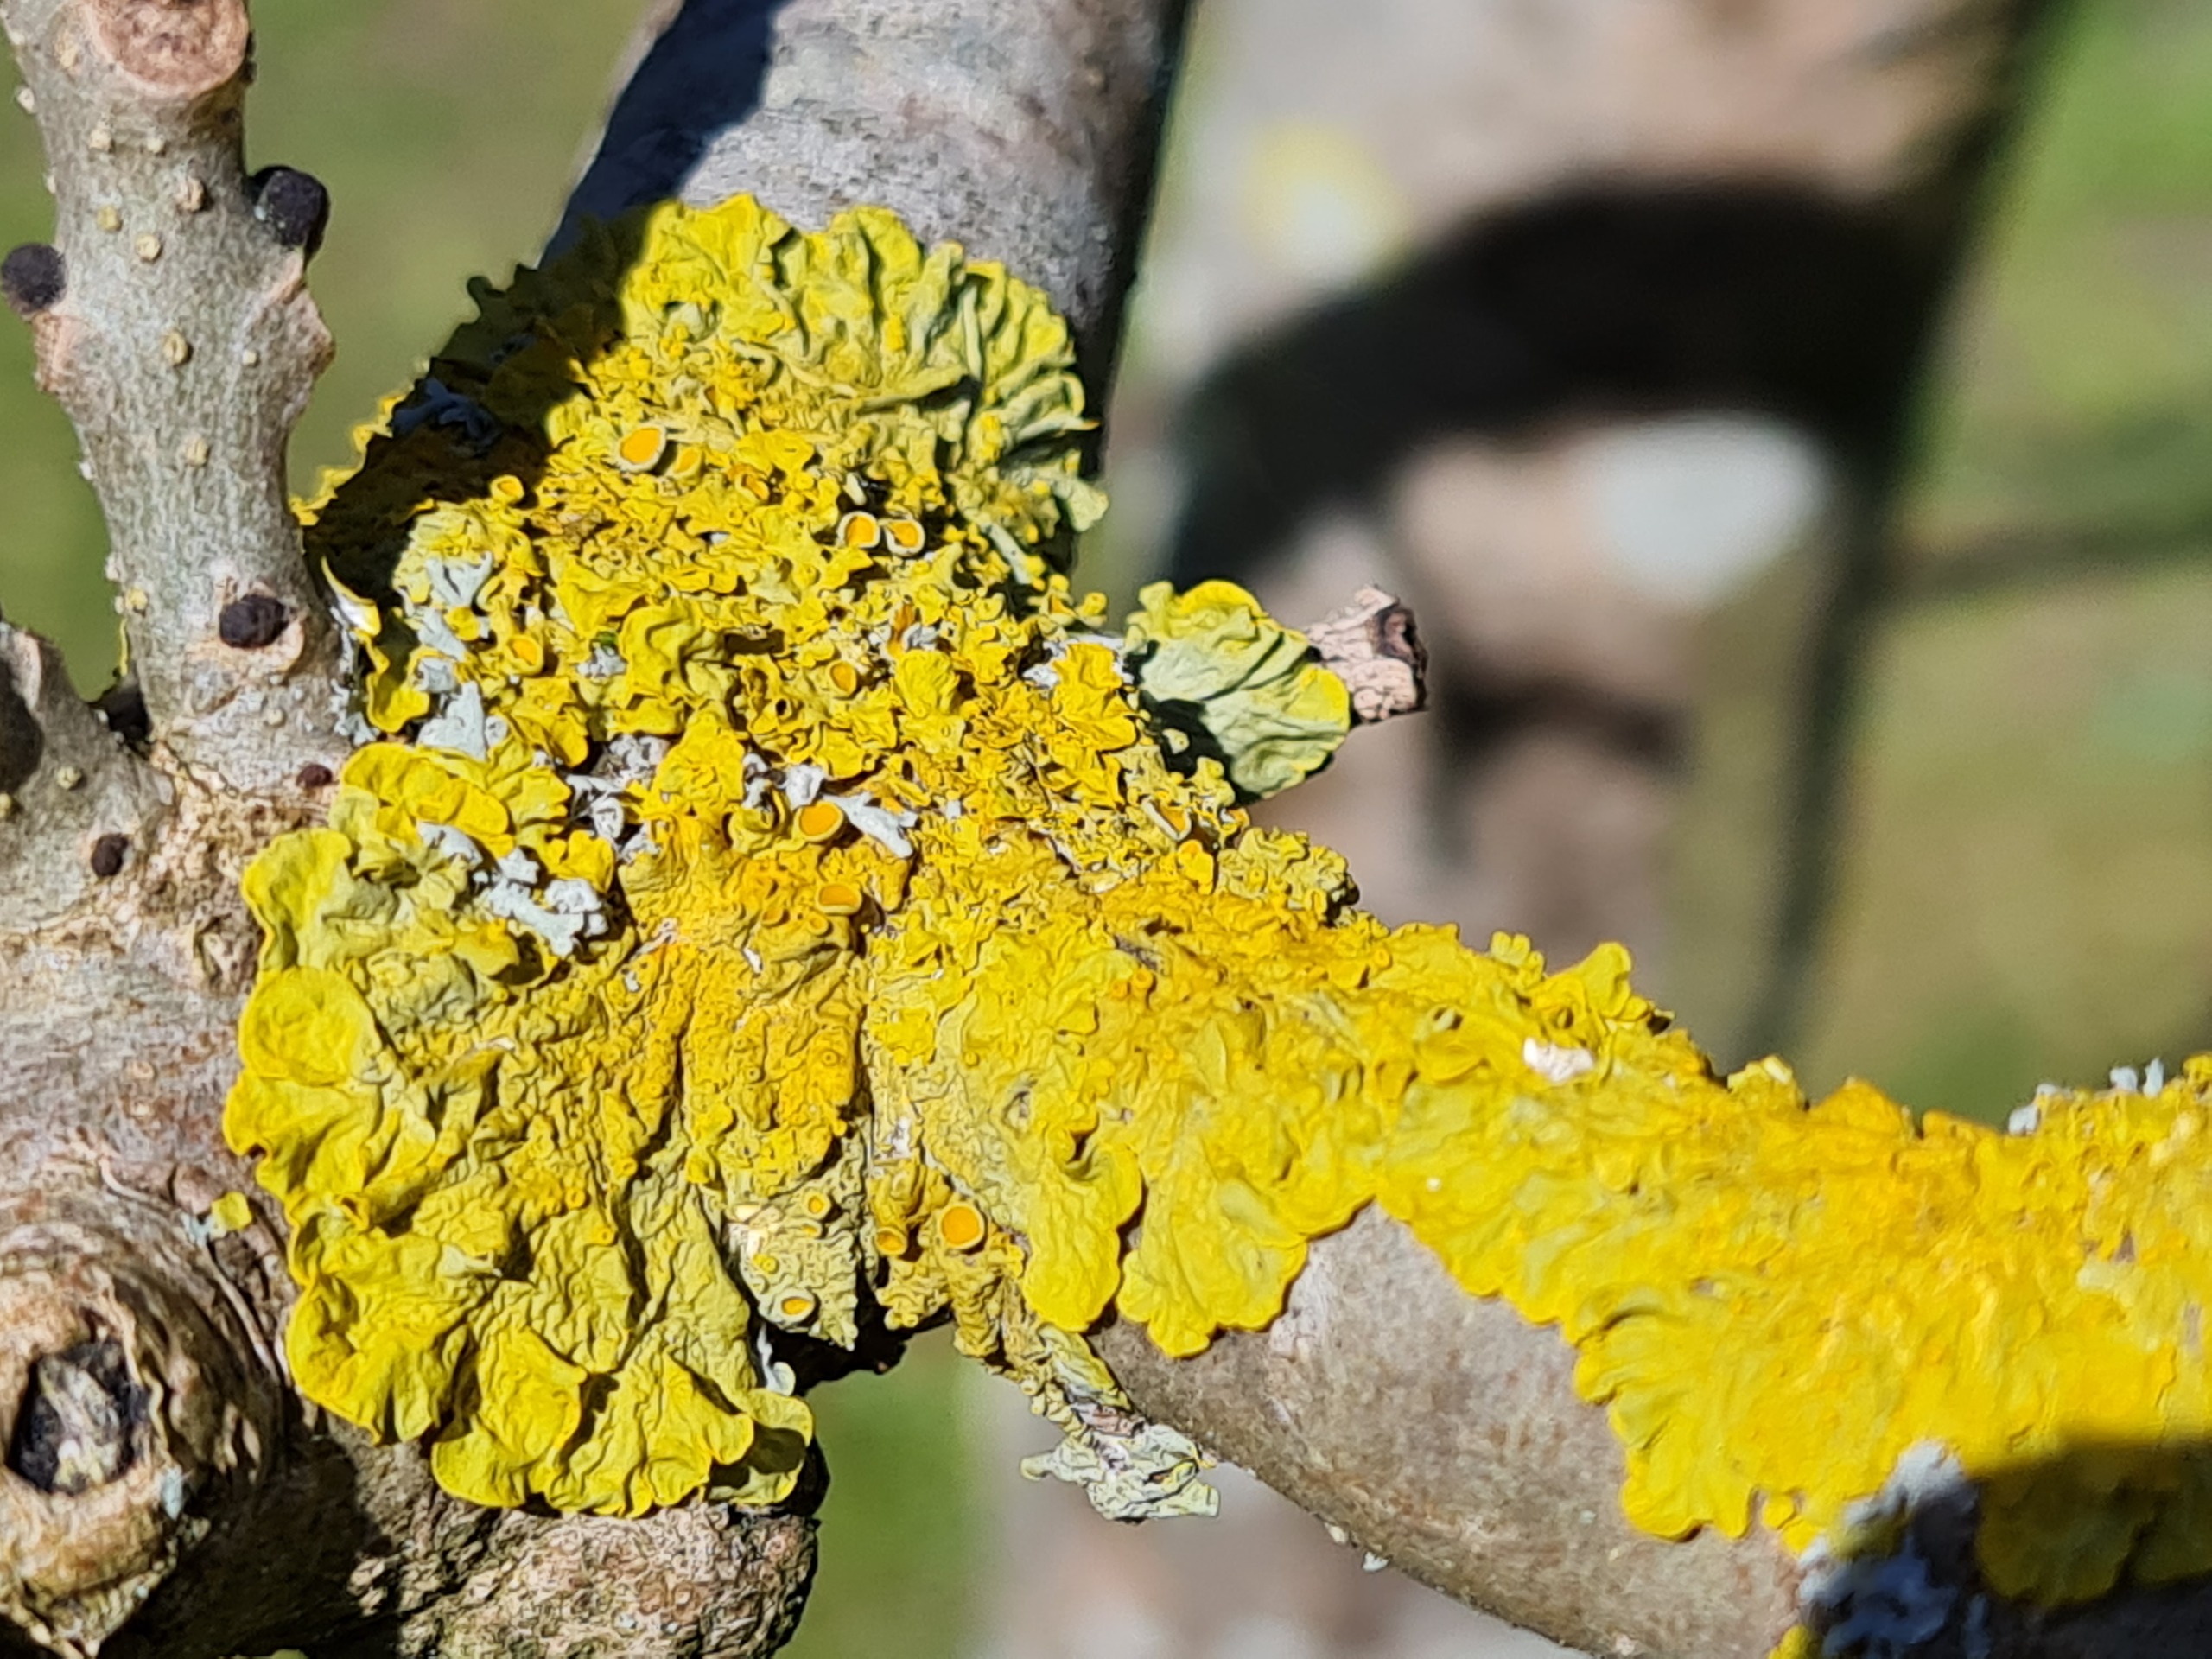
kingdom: Fungi
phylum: Ascomycota
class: Lecanoromycetes
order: Teloschistales
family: Teloschistaceae
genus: Xanthoria
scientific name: Xanthoria parietina
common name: Almindelig væggelav
